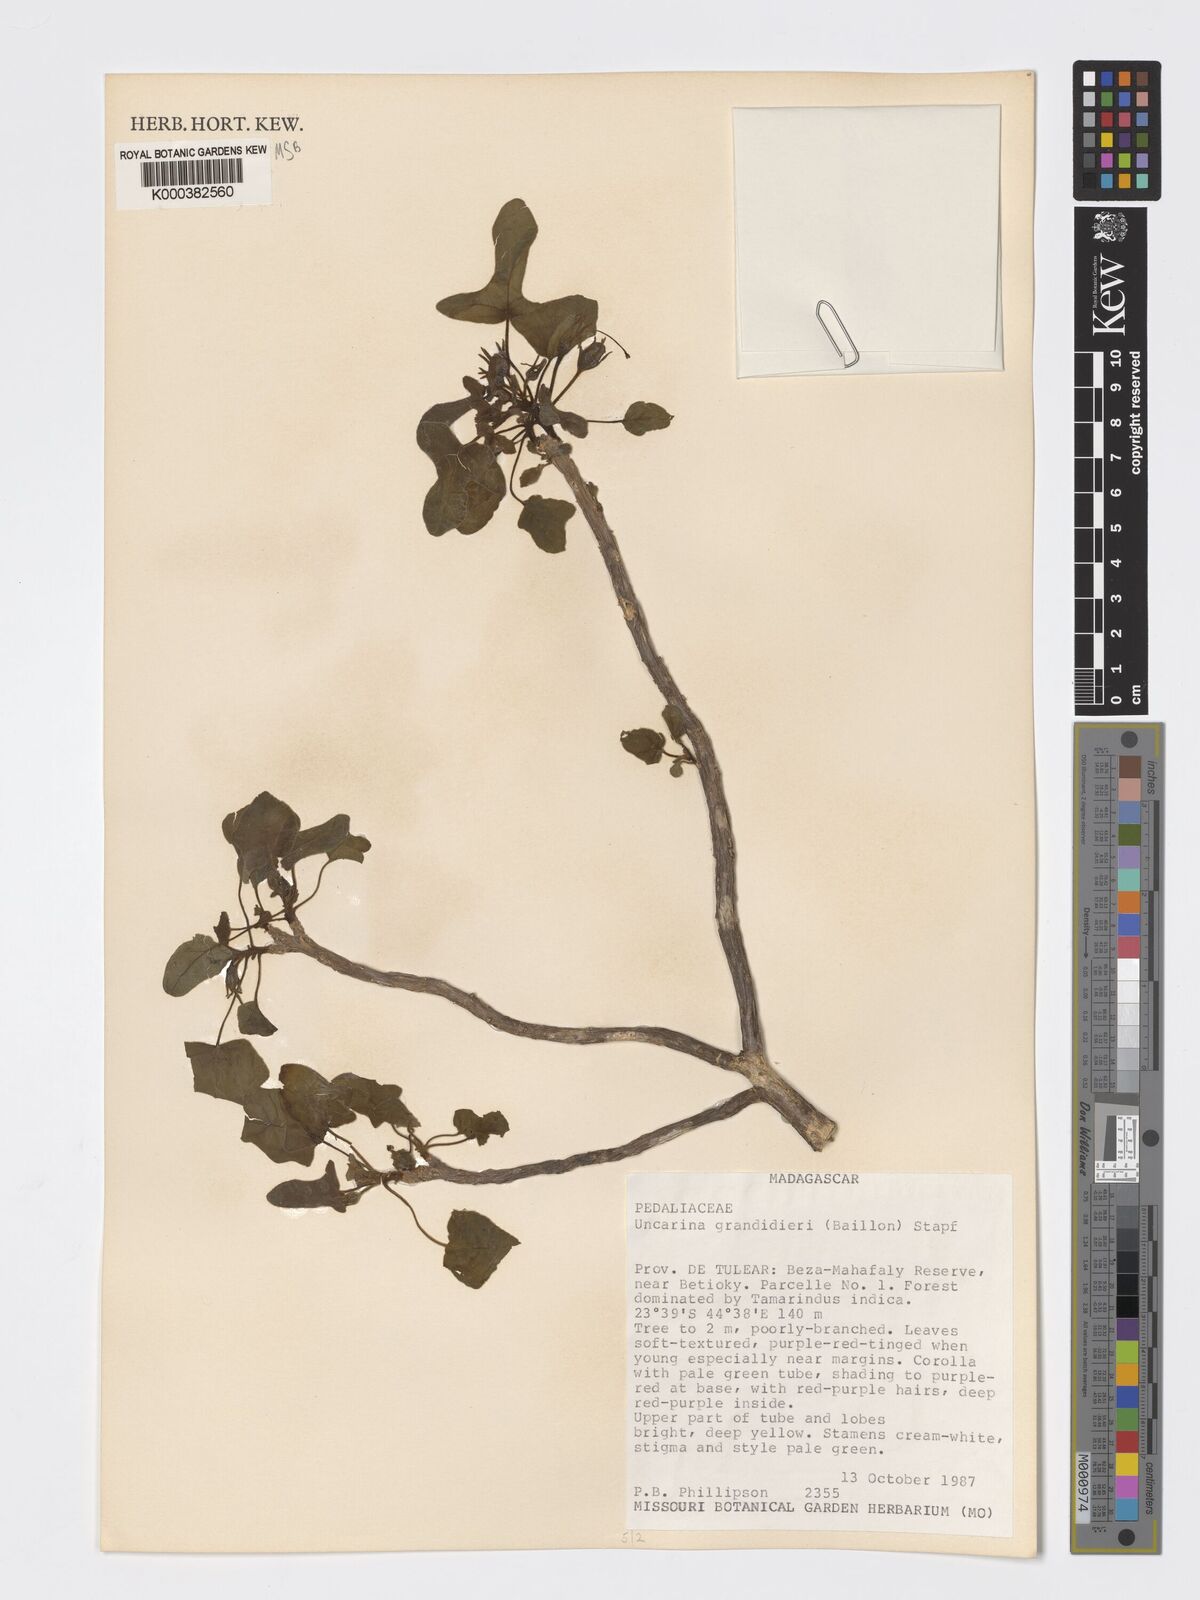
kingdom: Plantae
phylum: Tracheophyta
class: Magnoliopsida
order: Lamiales
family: Pedaliaceae
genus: Uncarina
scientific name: Uncarina
